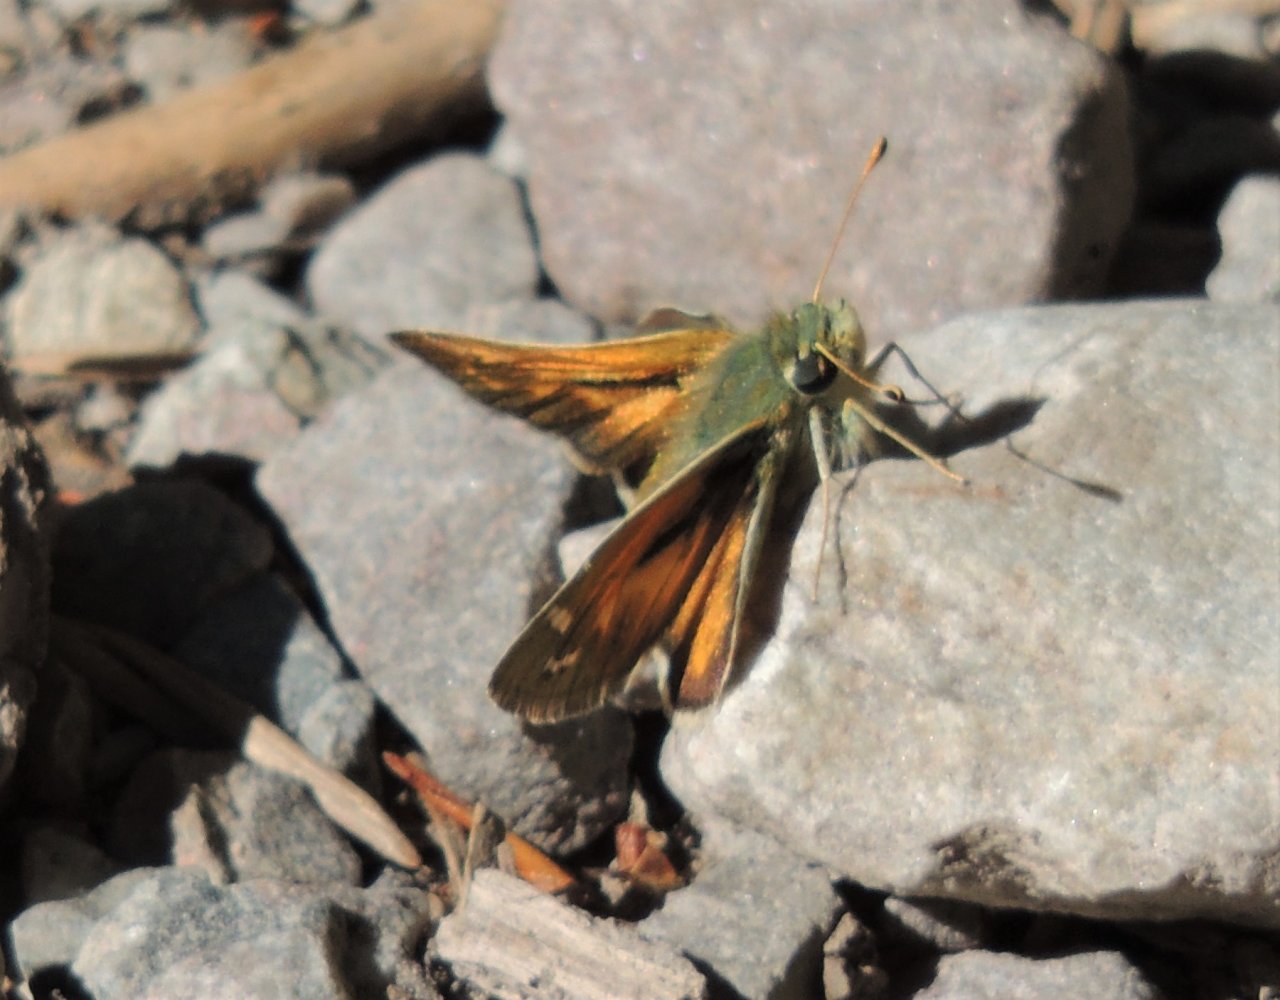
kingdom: Animalia
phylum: Arthropoda
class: Insecta
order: Lepidoptera
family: Hesperiidae
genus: Hesperia
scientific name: Hesperia comma
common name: Western Branded Skipper
